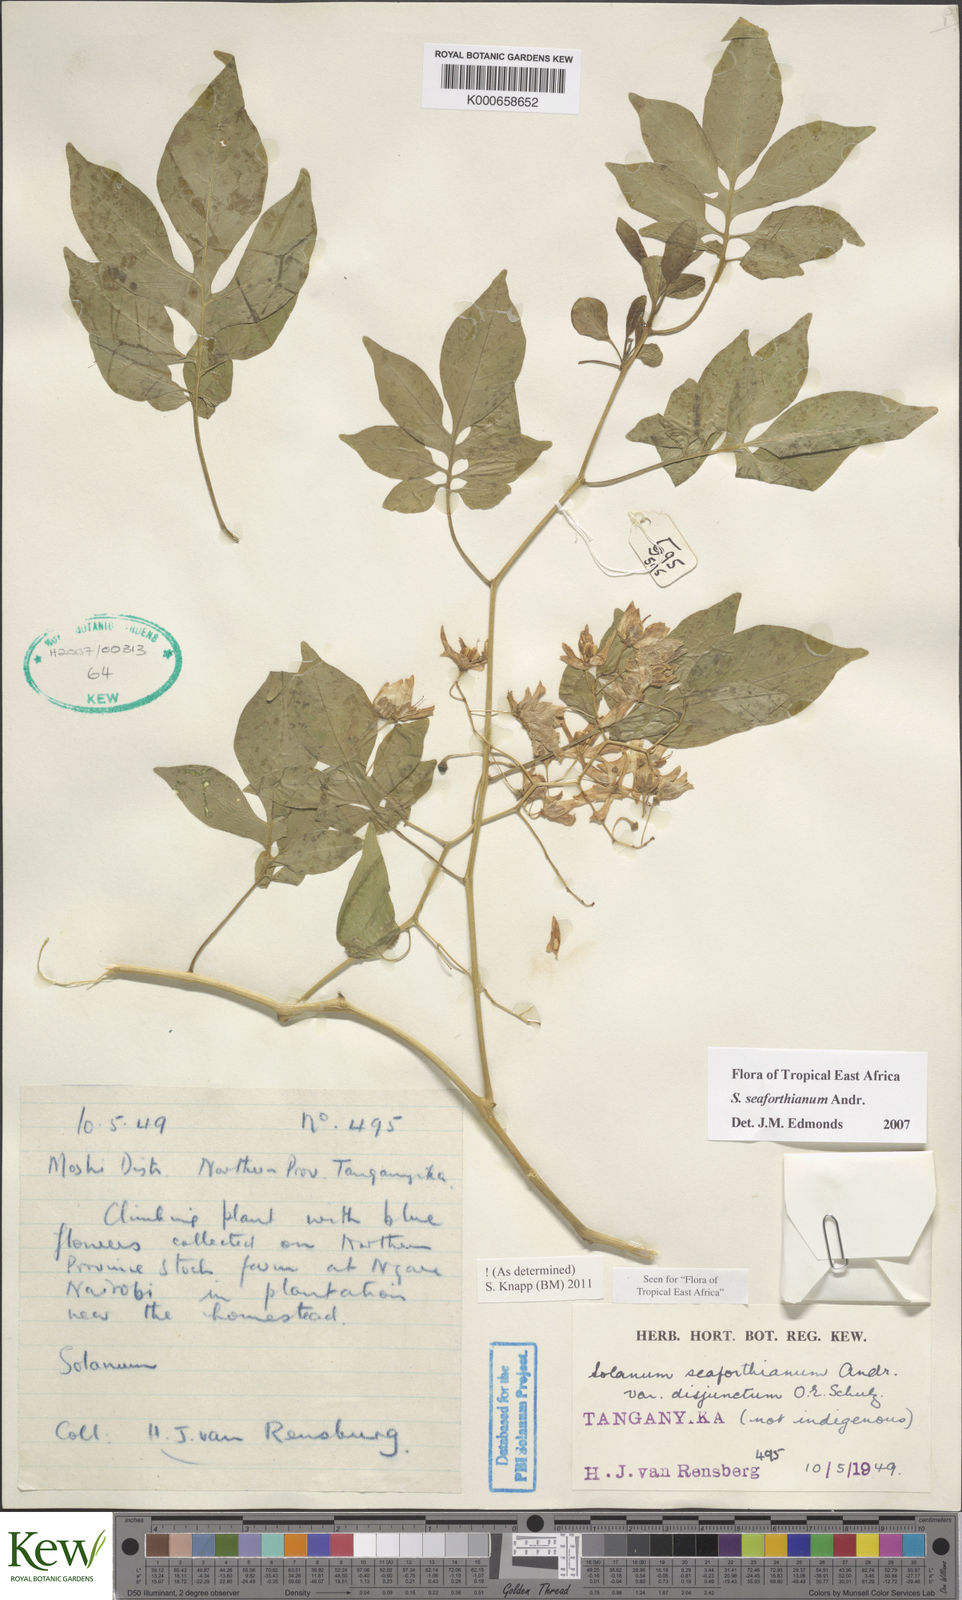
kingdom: Plantae
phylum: Tracheophyta
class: Magnoliopsida
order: Solanales
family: Solanaceae
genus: Solanum
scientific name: Solanum seaforthianum
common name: Brazilian nightshade
